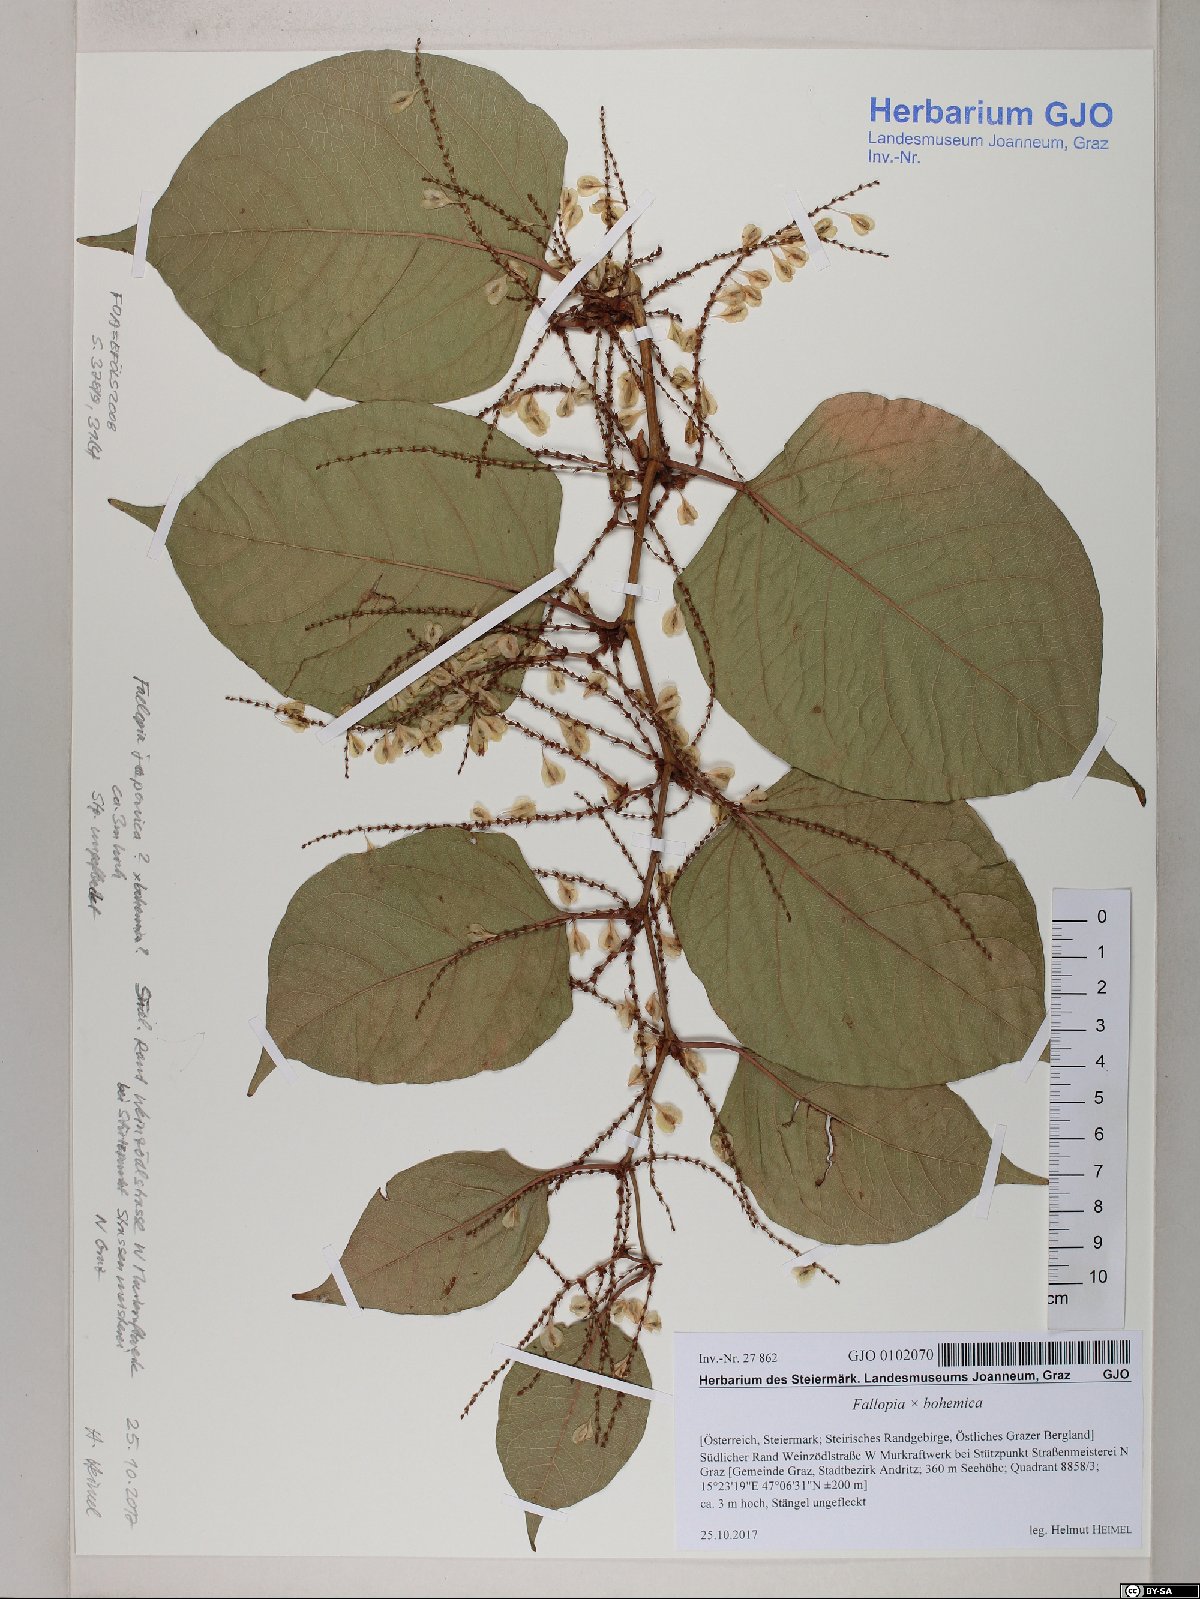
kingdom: Plantae
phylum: Tracheophyta
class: Magnoliopsida
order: Caryophyllales
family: Polygonaceae
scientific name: Polygonaceae
